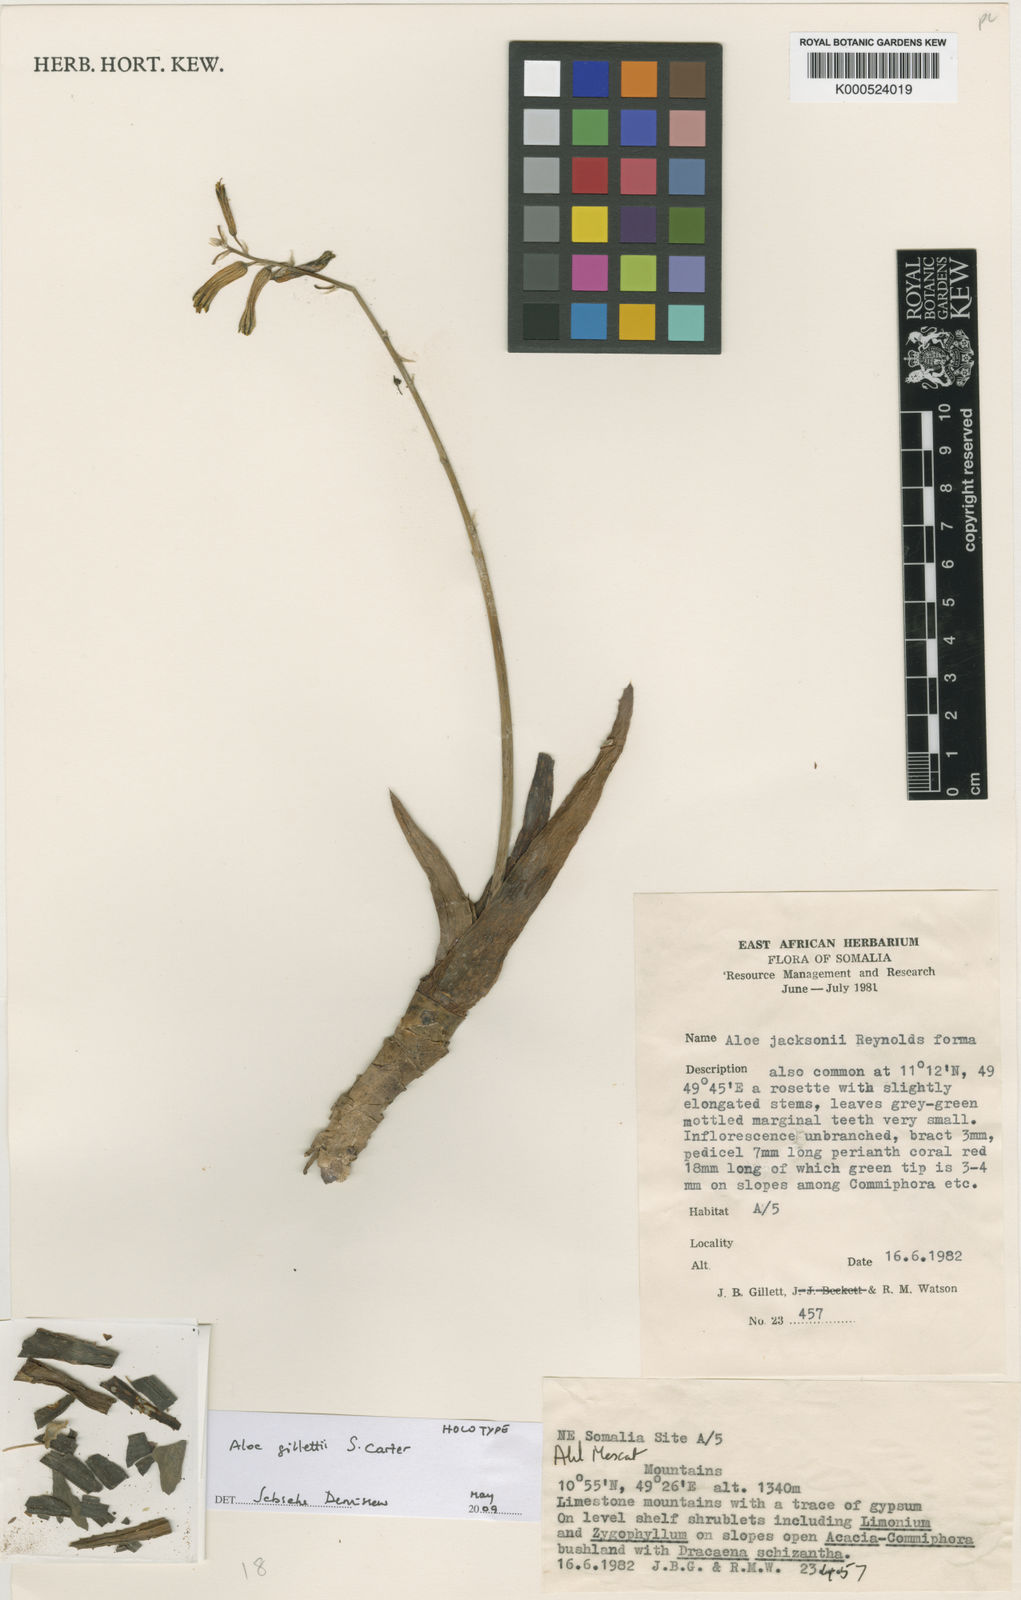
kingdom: Plantae
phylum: Tracheophyta
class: Liliopsida
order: Asparagales
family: Asphodelaceae
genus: Aloe
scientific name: Aloe gillettii
